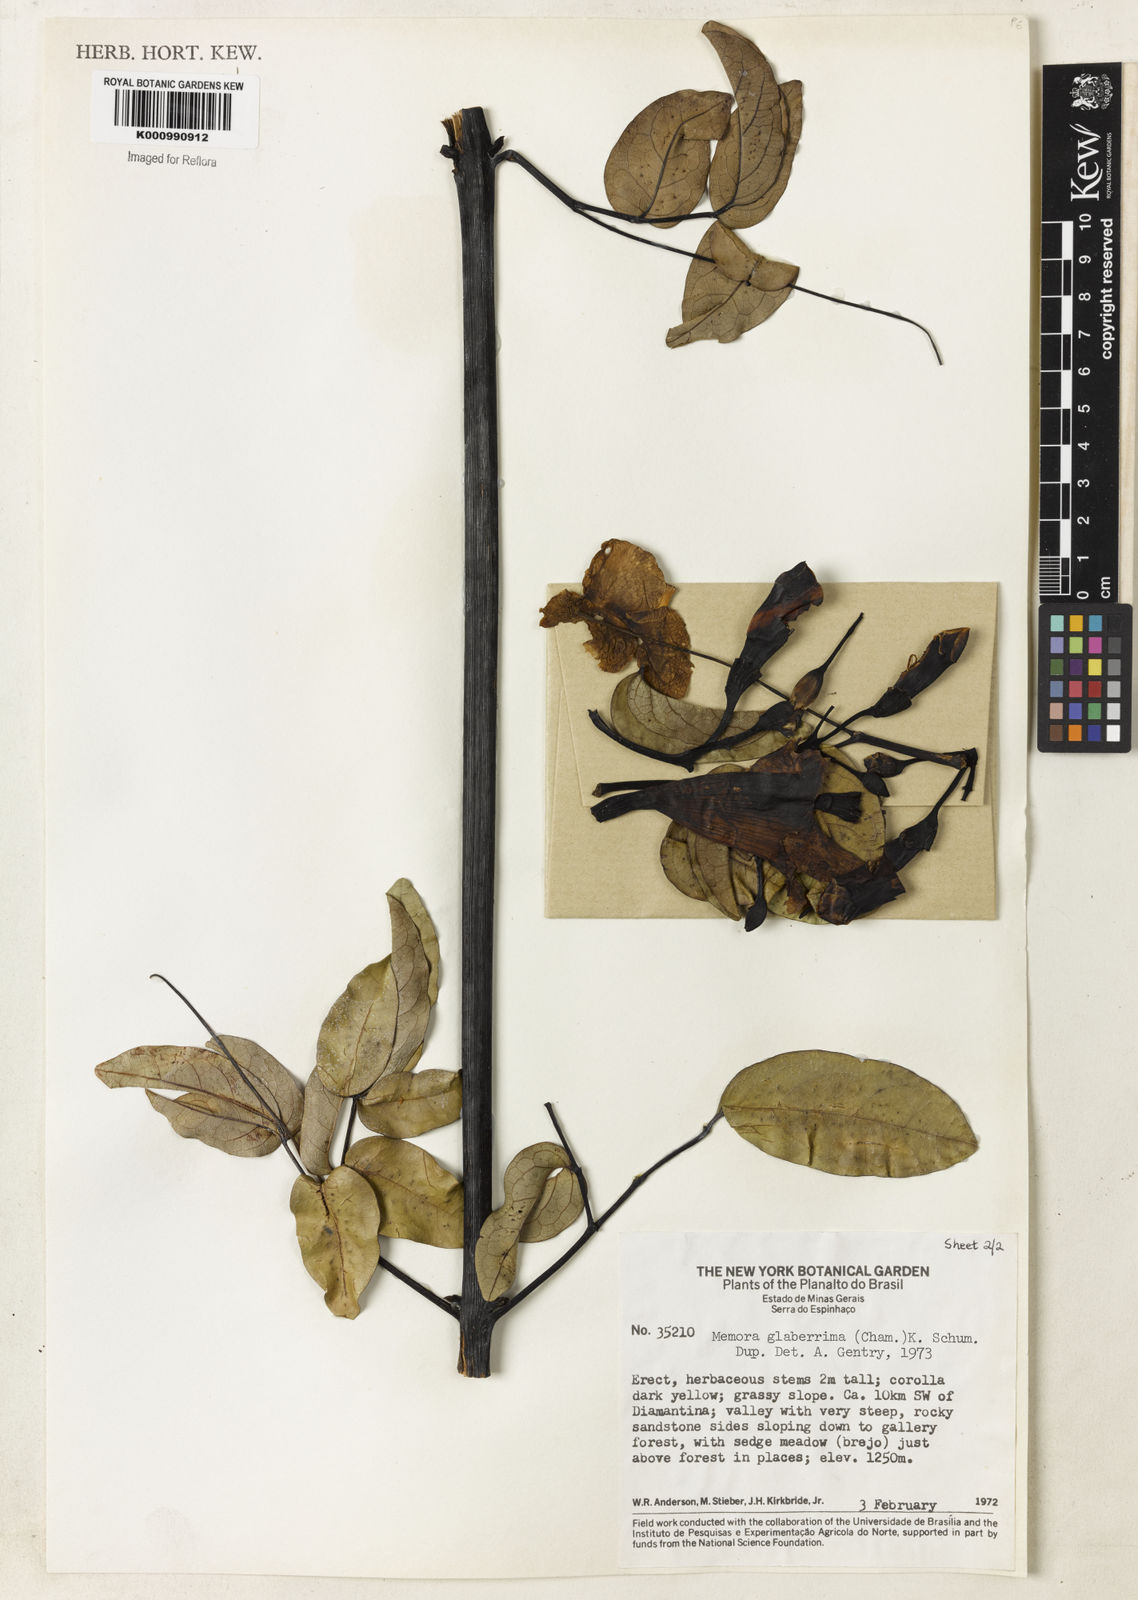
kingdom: Plantae
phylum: Tracheophyta
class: Magnoliopsida
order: Lamiales
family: Bignoniaceae
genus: Adenocalymma
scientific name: Adenocalymma pedunculatum
